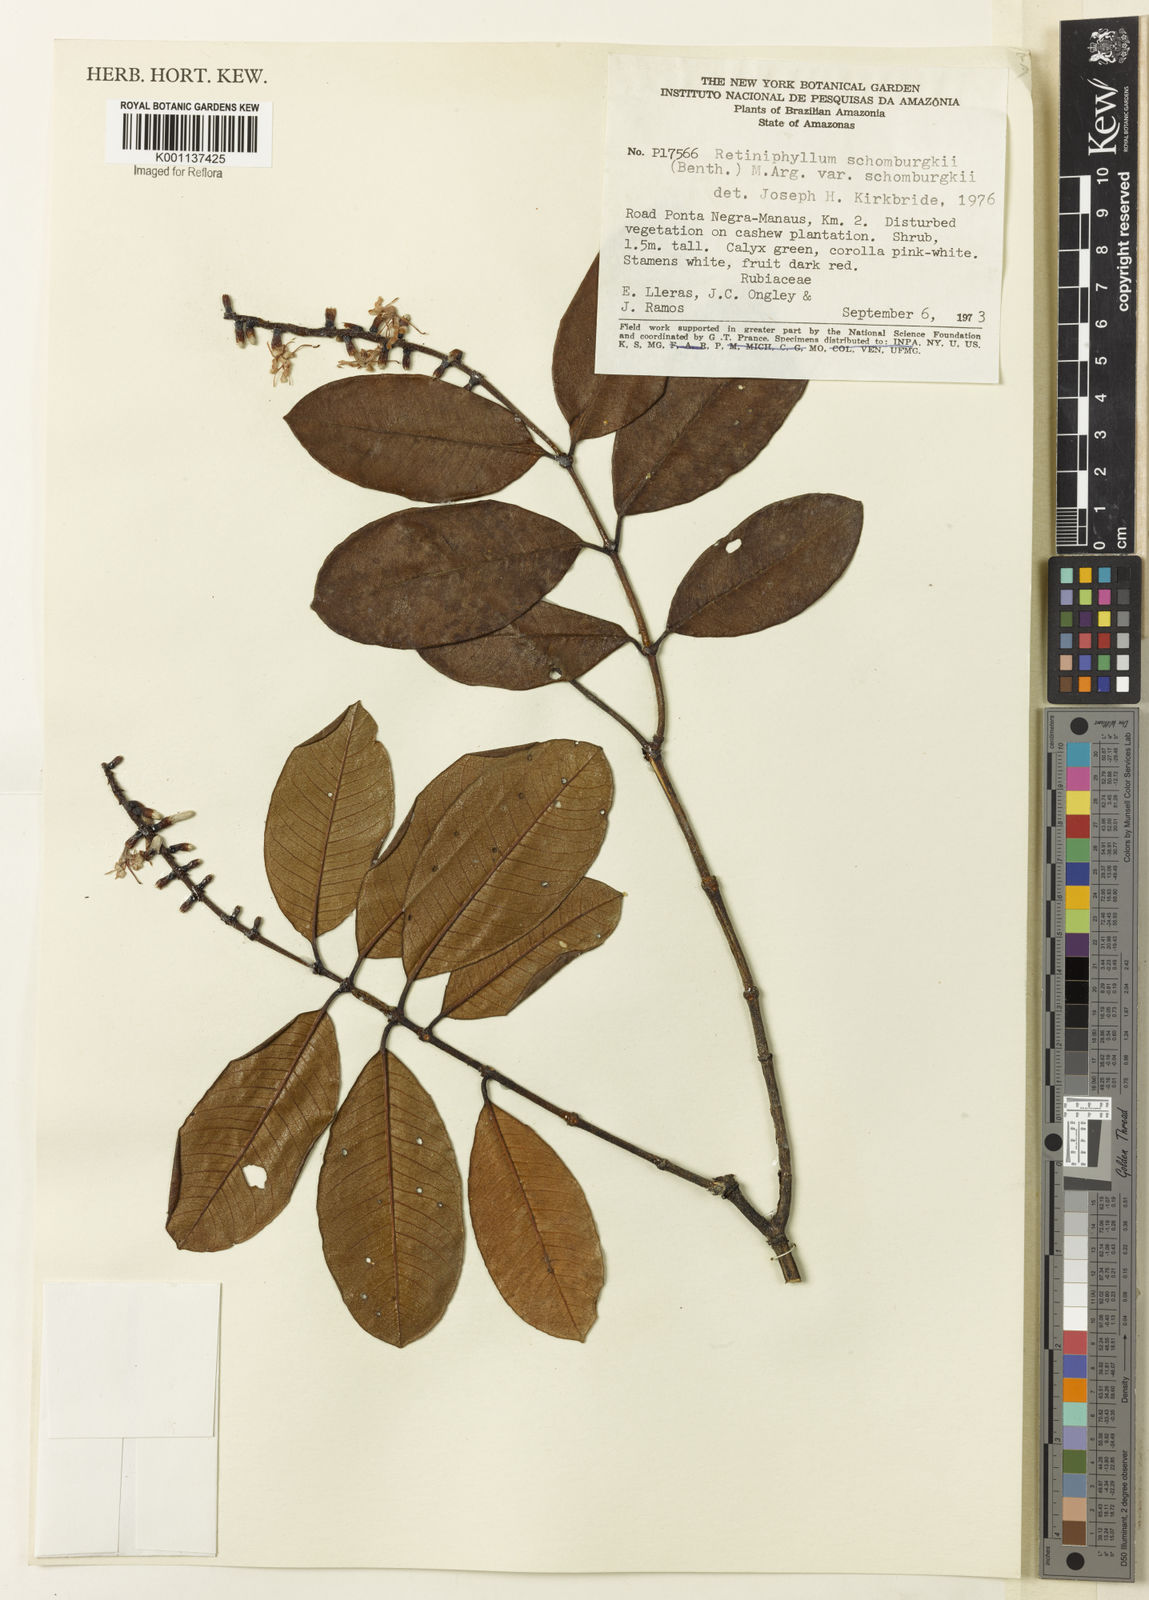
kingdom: Plantae
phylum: Tracheophyta
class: Magnoliopsida
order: Gentianales
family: Rubiaceae
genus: Retiniphyllum
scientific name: Retiniphyllum
